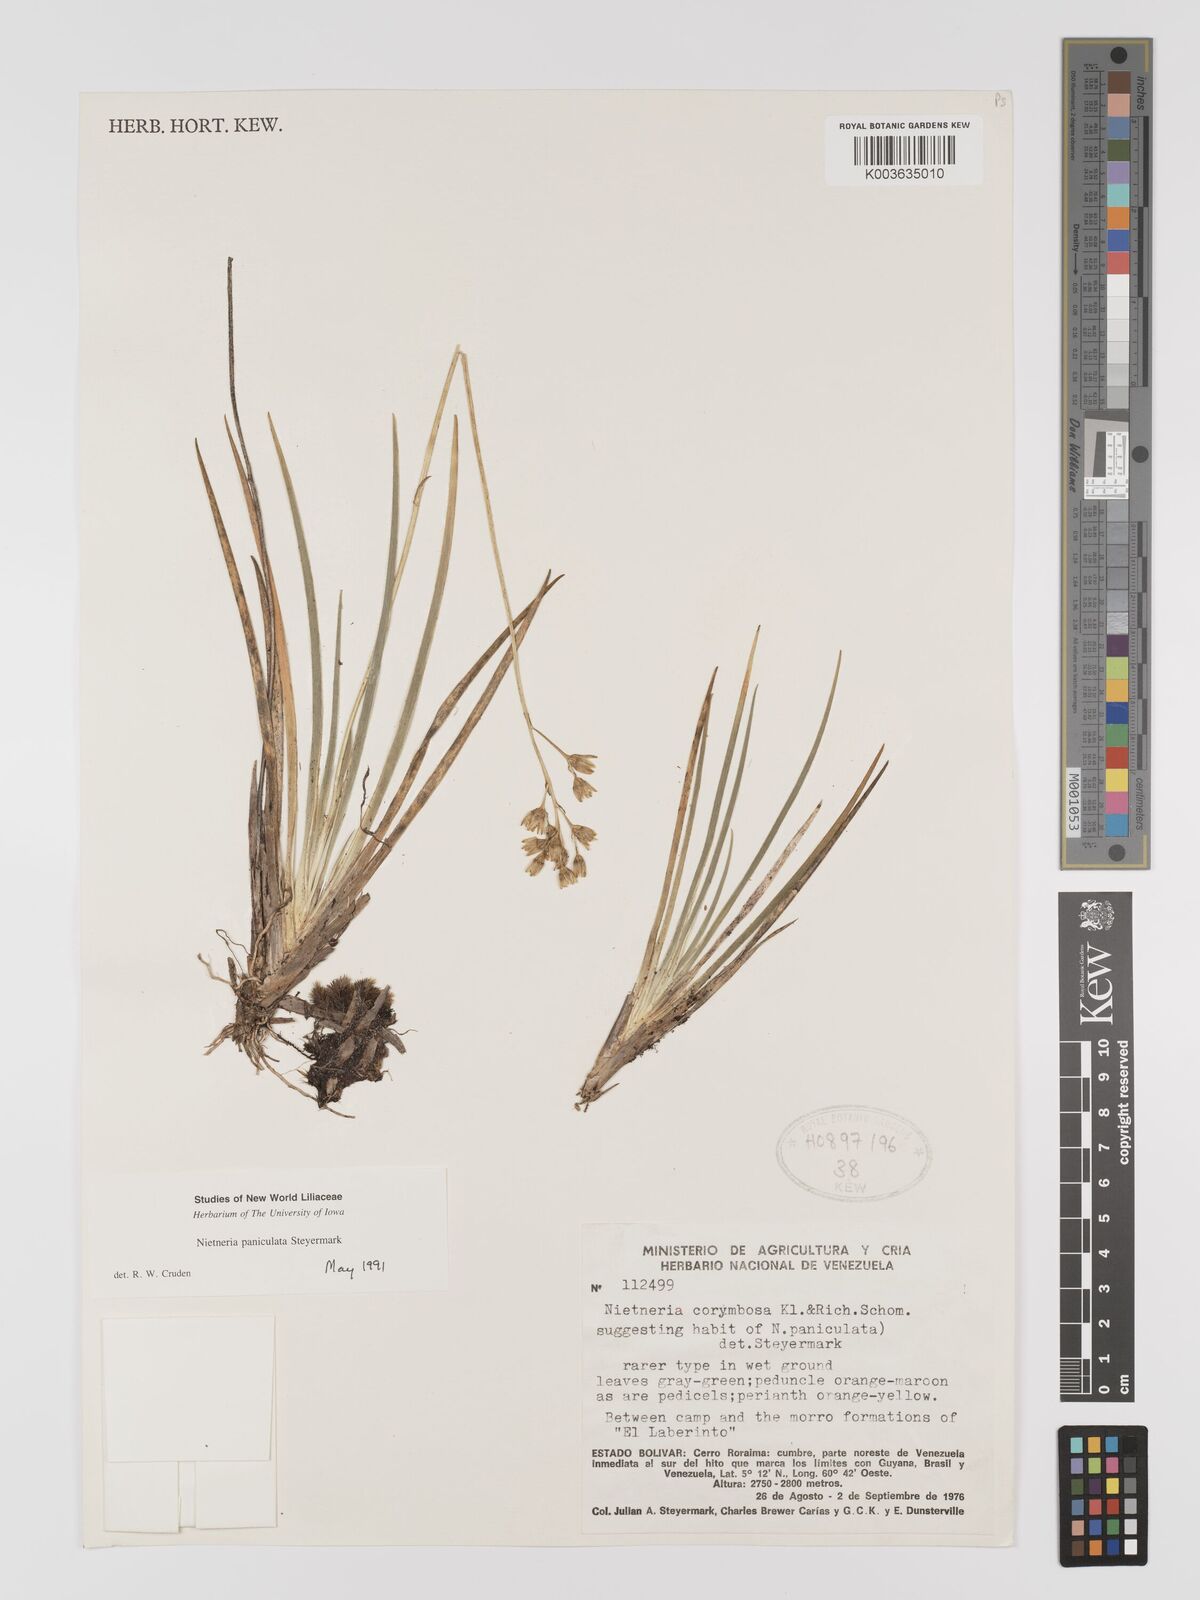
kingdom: Plantae
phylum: Tracheophyta
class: Liliopsida
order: Dioscoreales
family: Nartheciaceae
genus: Nietneria
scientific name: Nietneria paniculata
